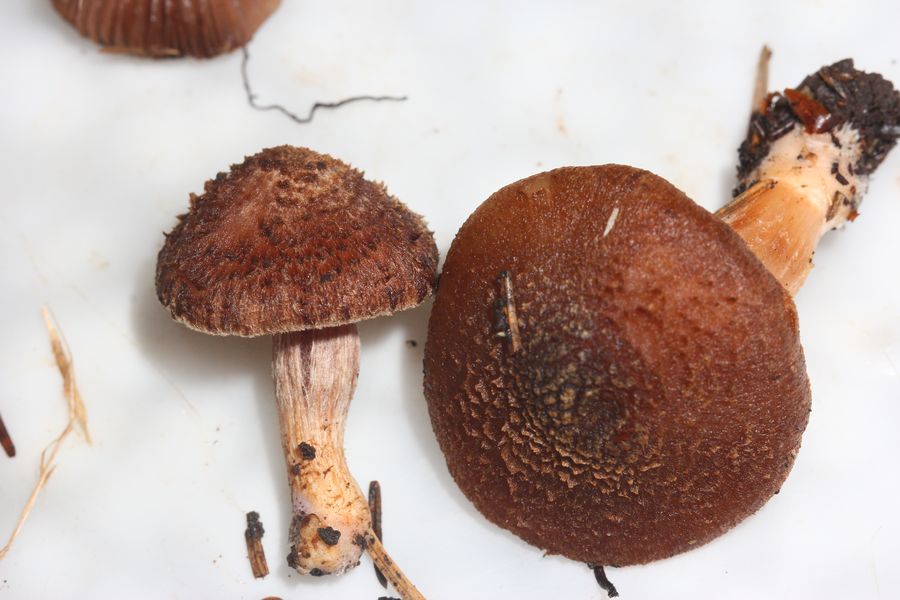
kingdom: Fungi
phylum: Basidiomycota
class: Agaricomycetes
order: Agaricales
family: Inocybaceae
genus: Inocybe
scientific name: Inocybe cincinnata
